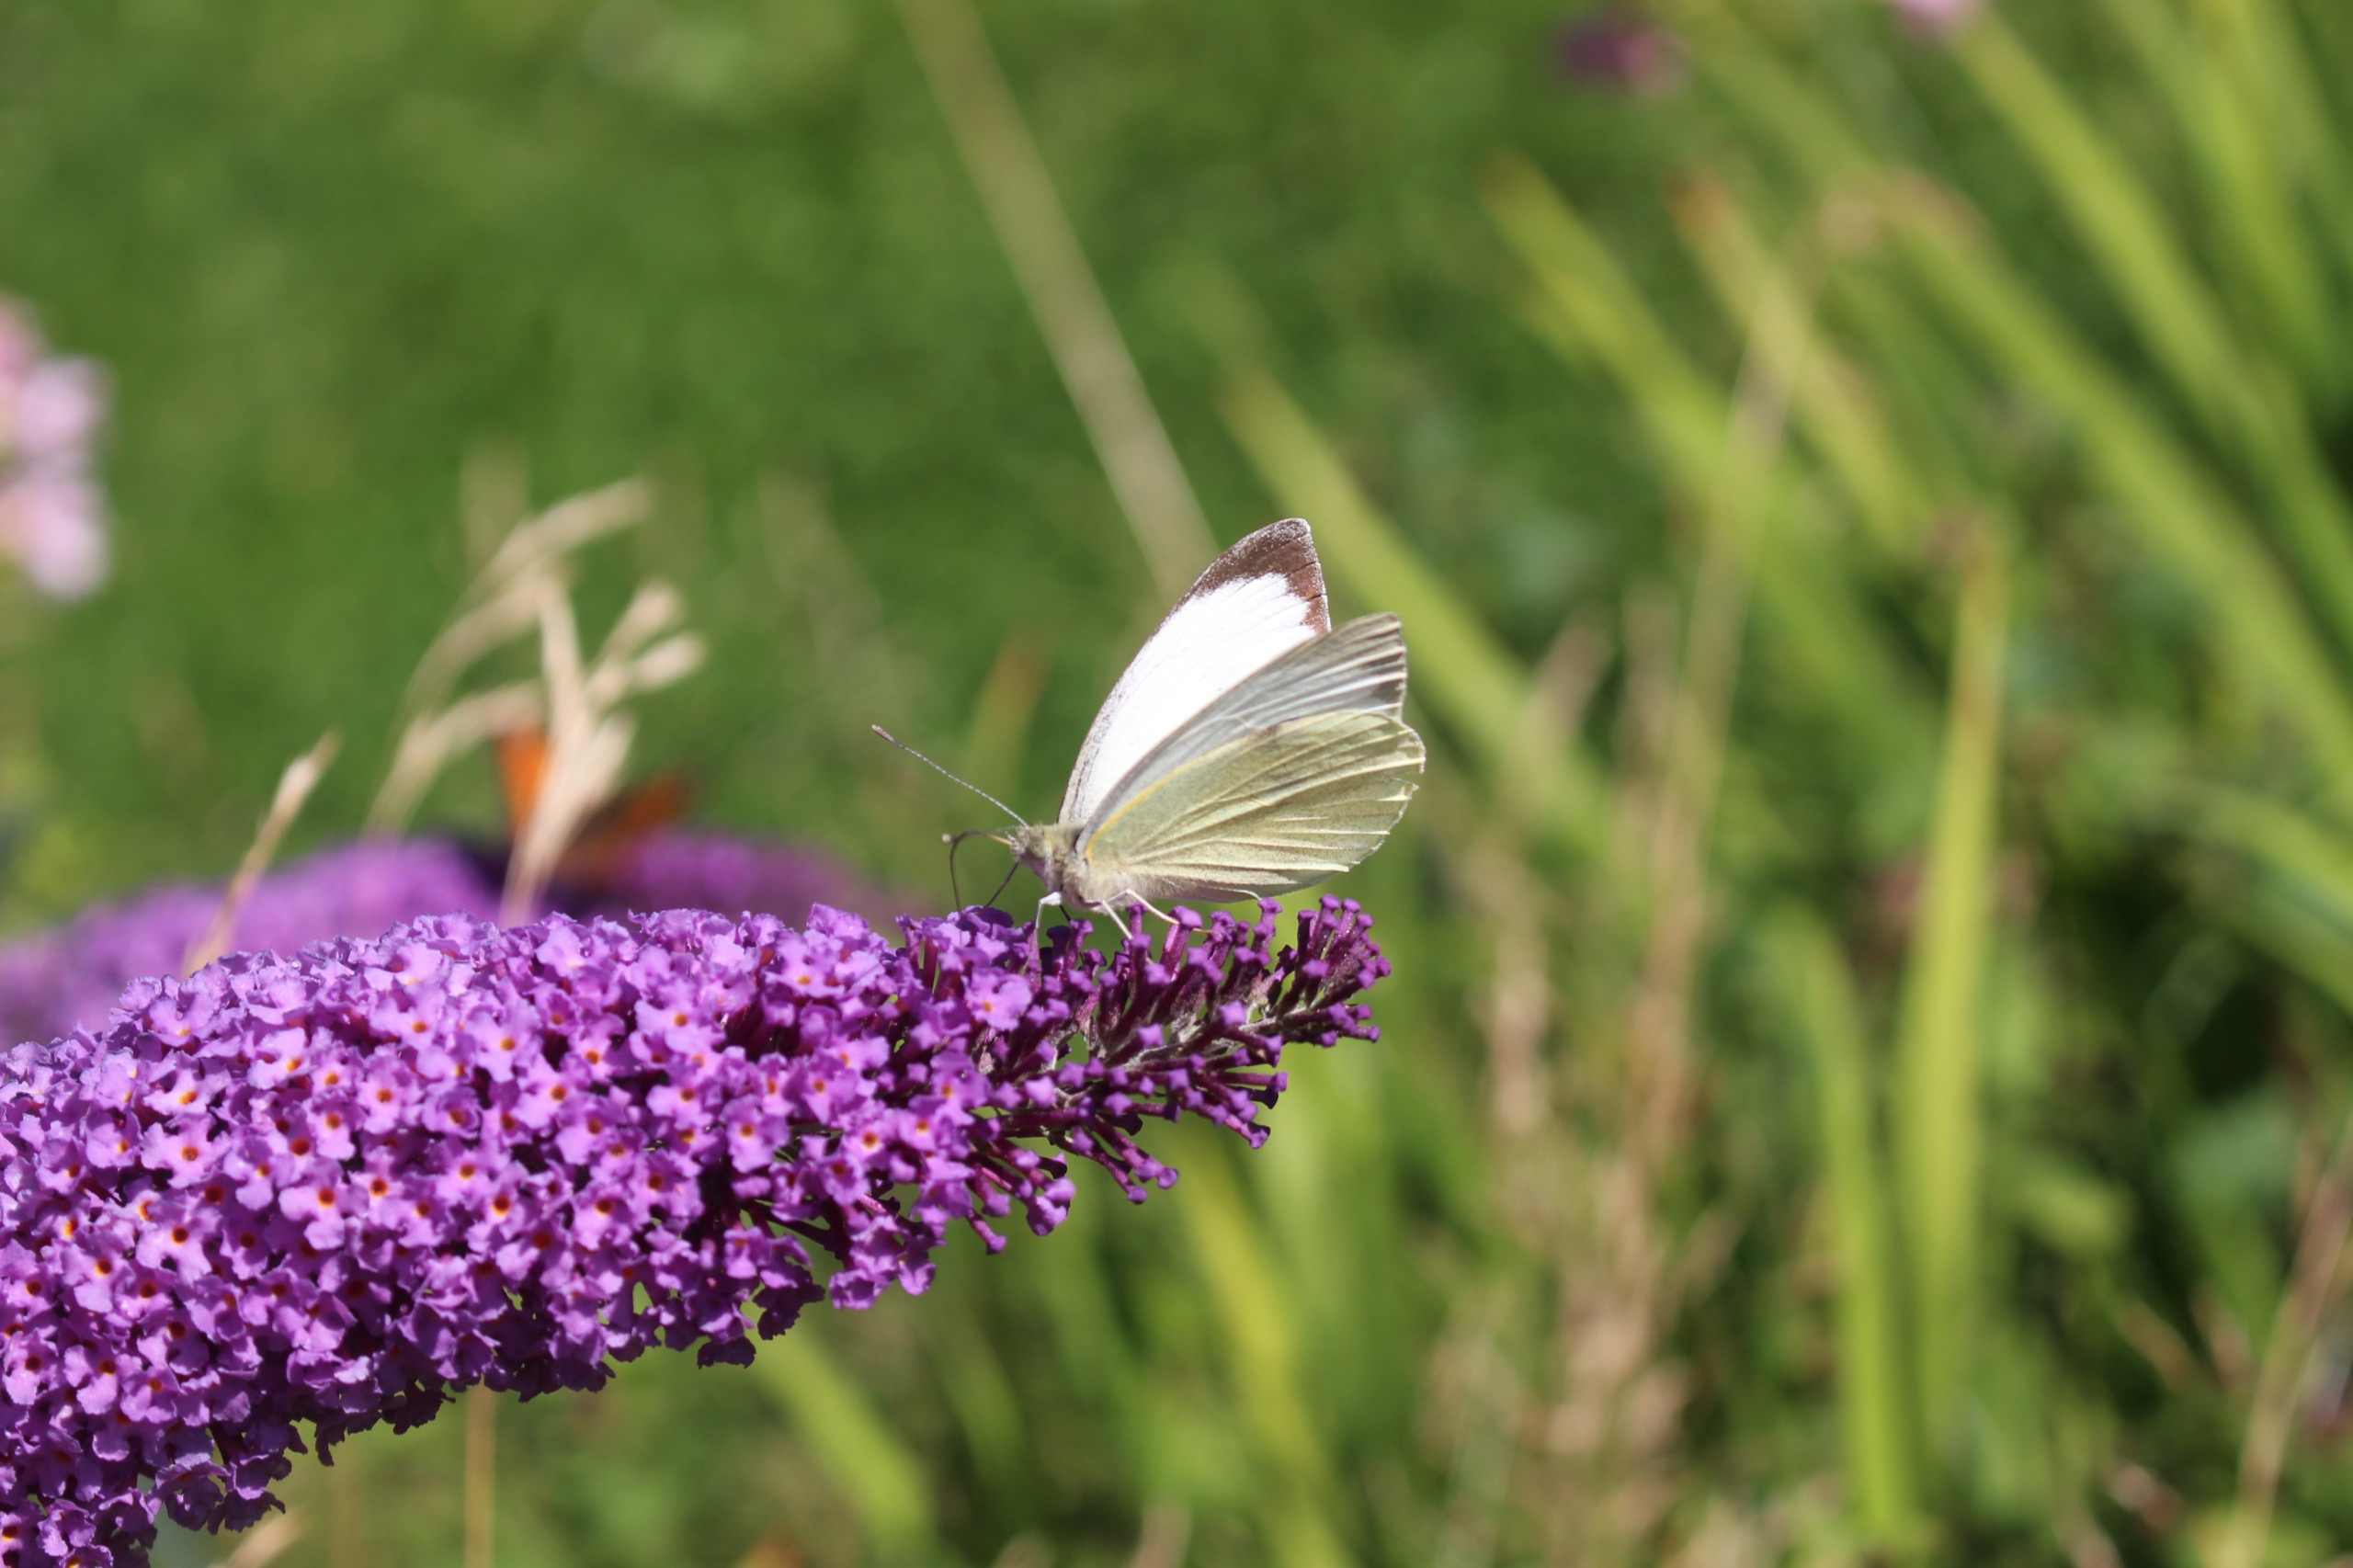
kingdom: Animalia
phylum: Arthropoda
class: Insecta
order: Lepidoptera
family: Pieridae
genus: Pieris
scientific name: Pieris brassicae
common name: Stor kålsommerfugl
